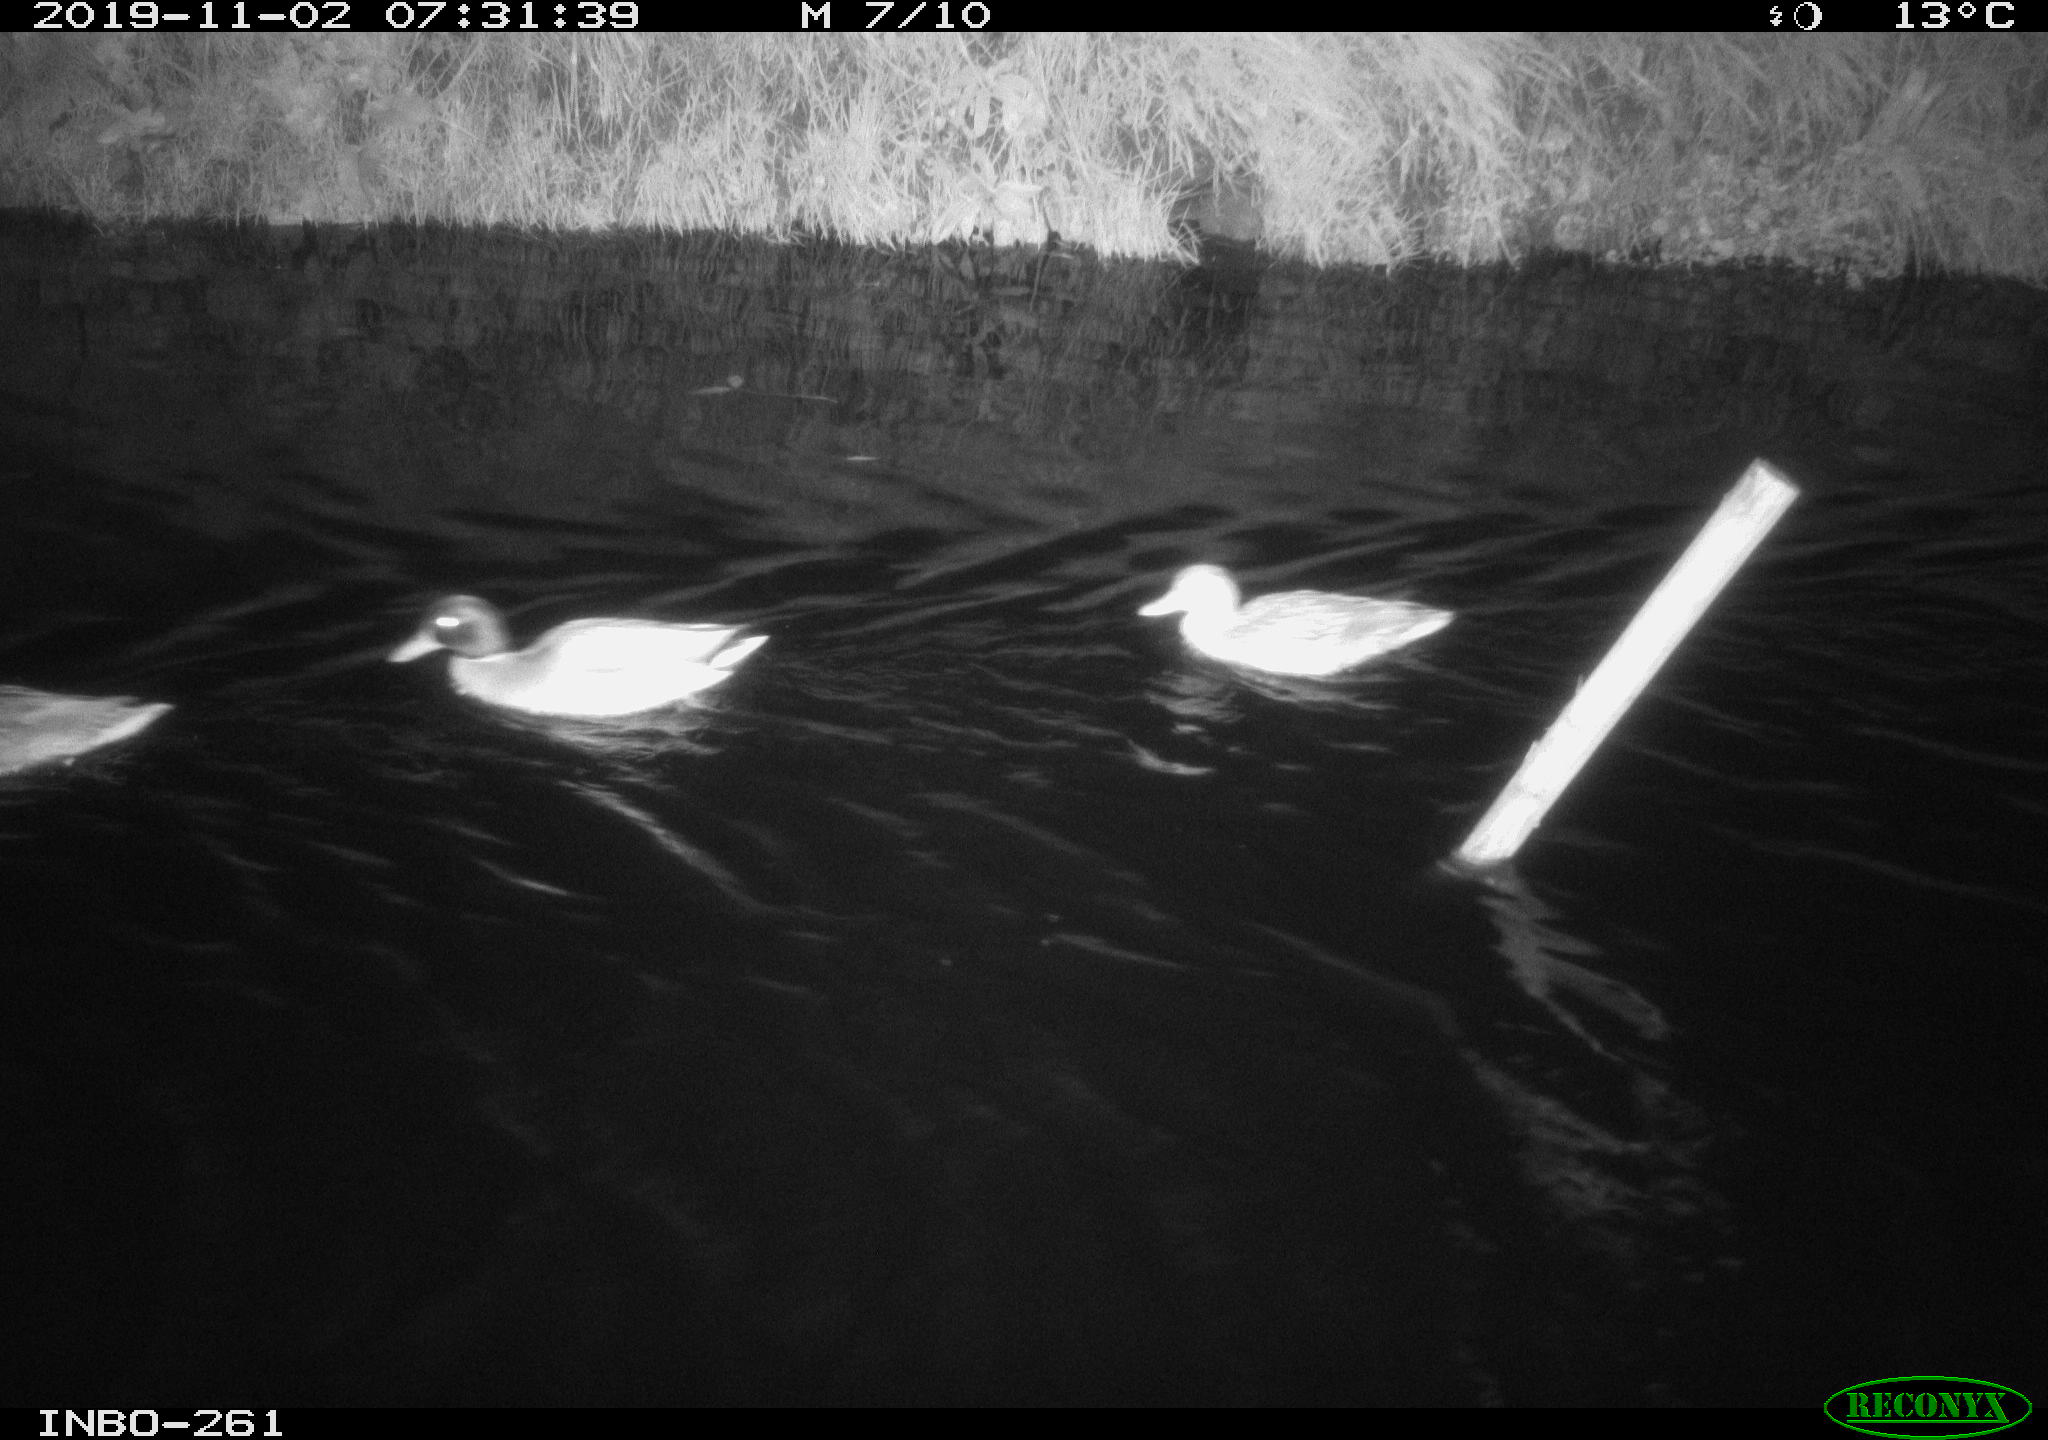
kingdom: Animalia
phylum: Chordata
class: Aves
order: Anseriformes
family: Anatidae
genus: Anas
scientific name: Anas platyrhynchos
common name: Mallard
